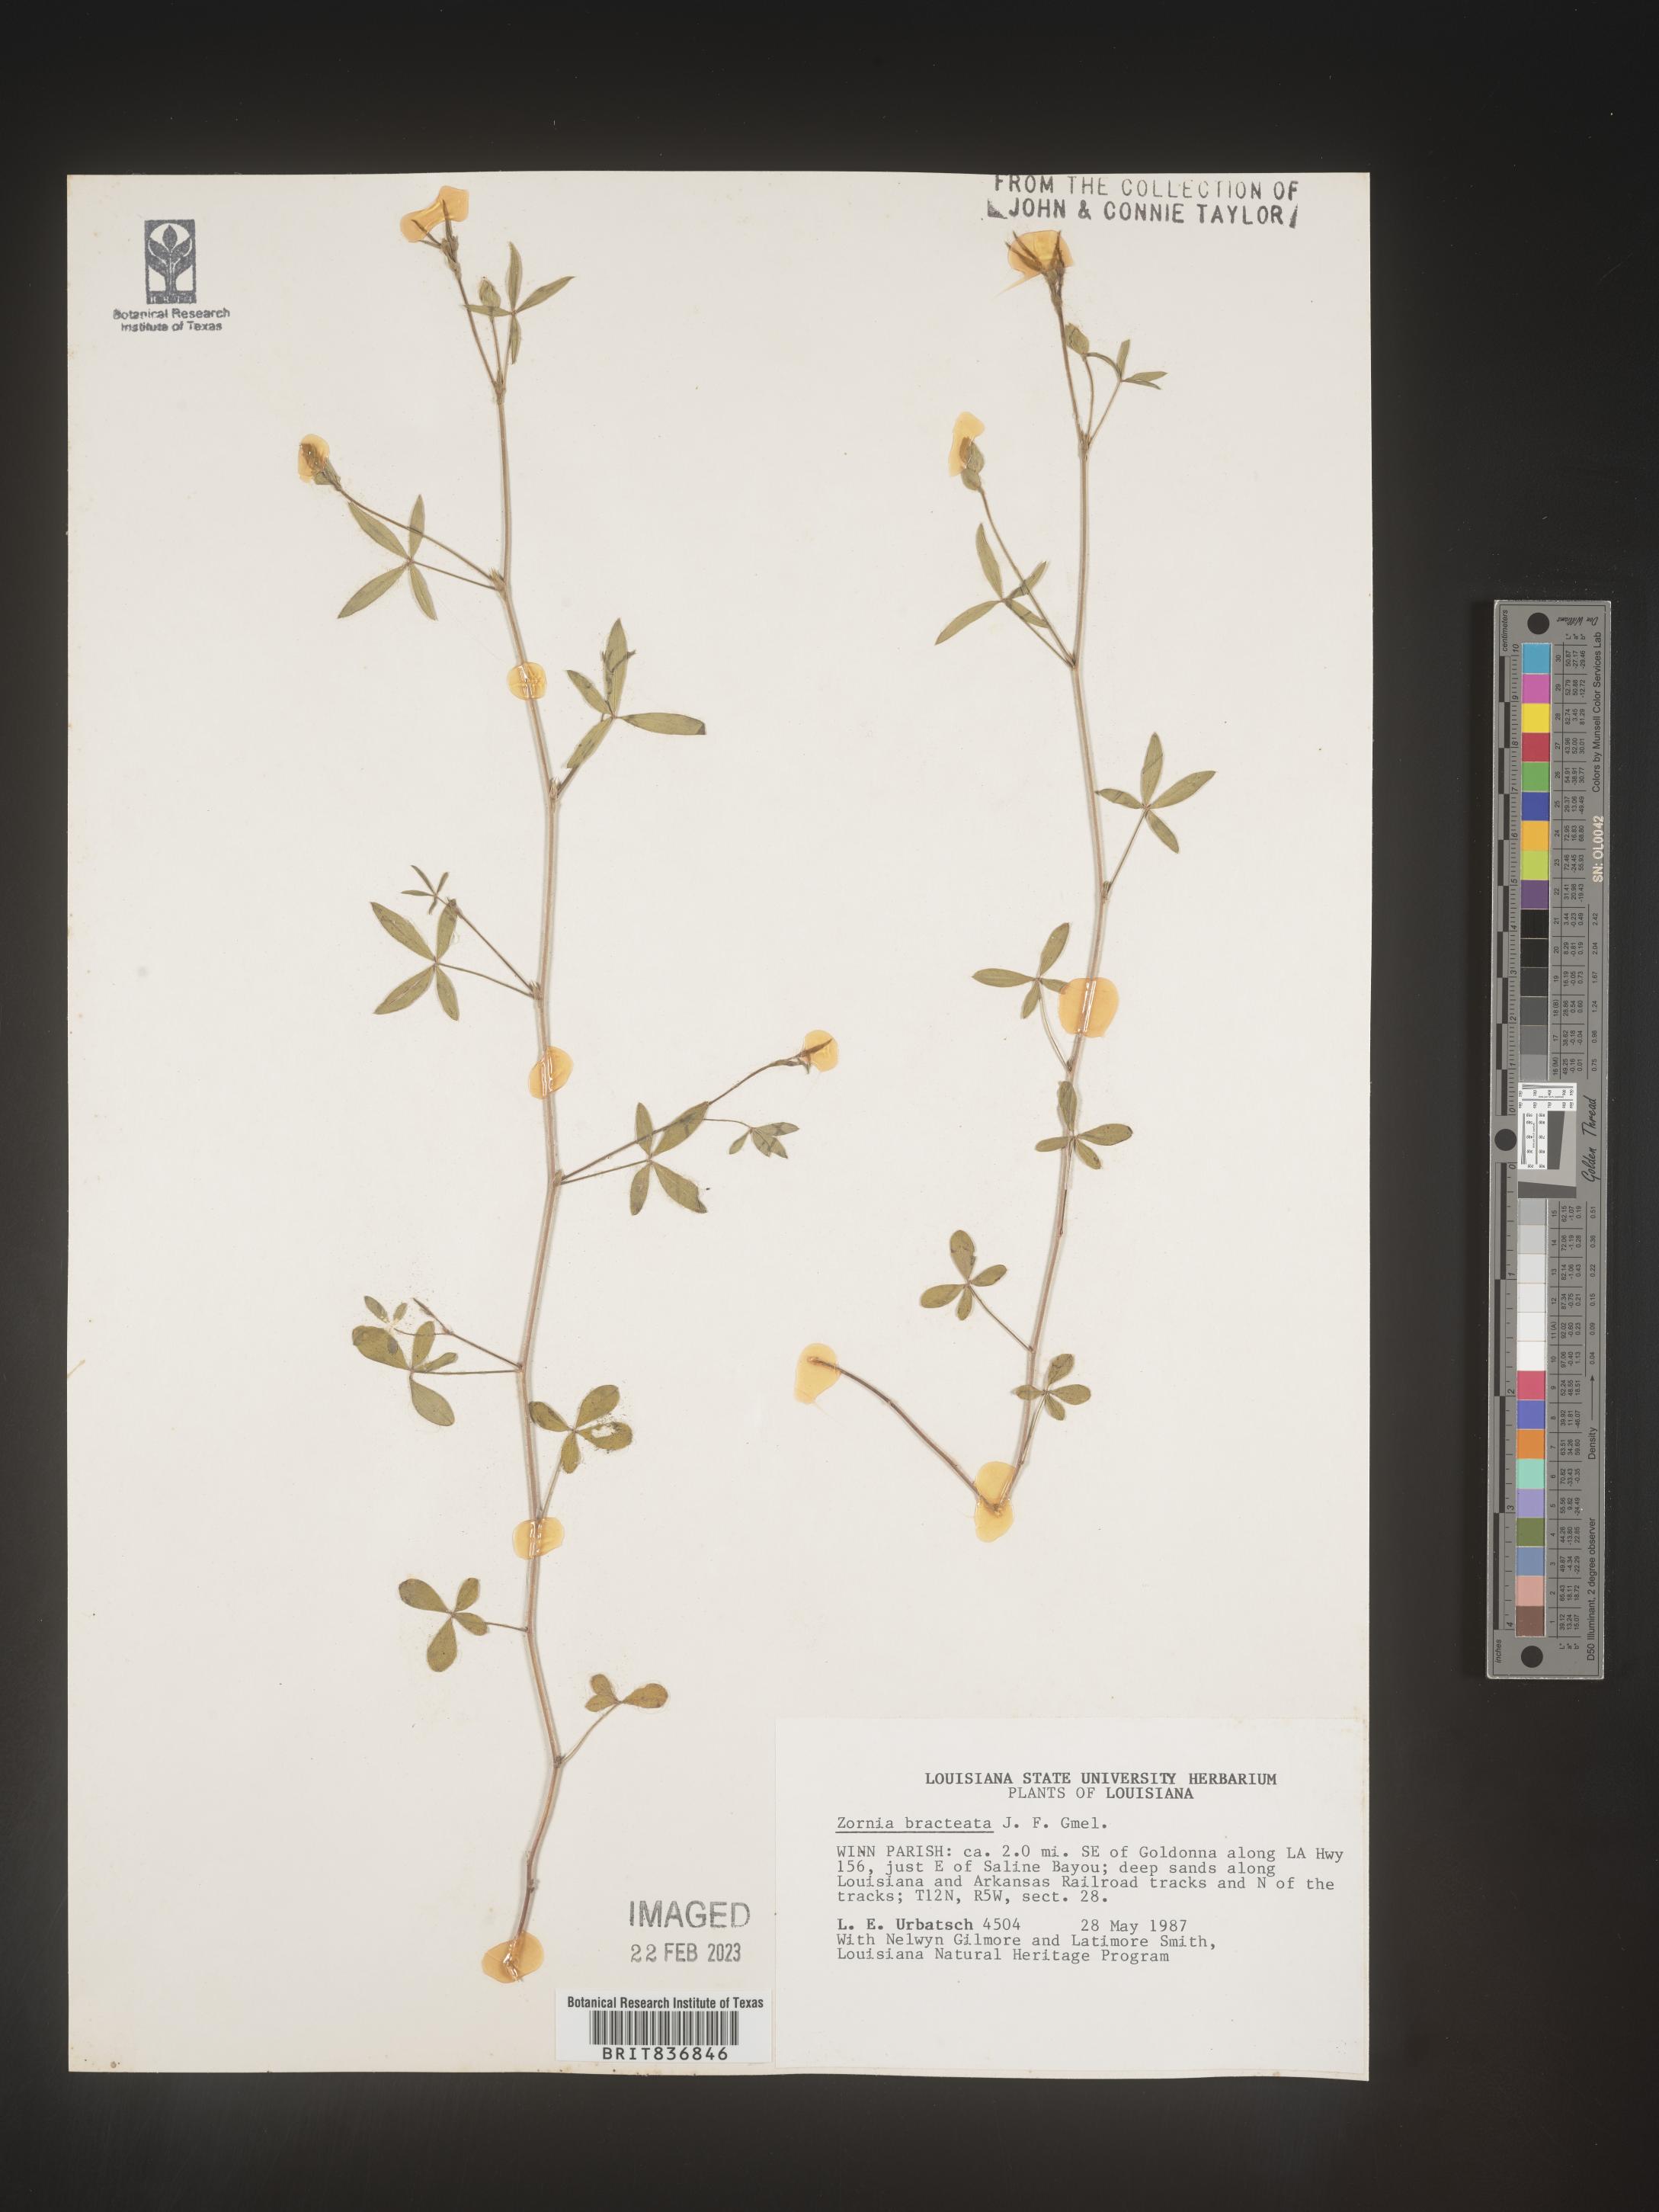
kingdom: Plantae
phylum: Tracheophyta
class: Magnoliopsida
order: Fabales
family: Fabaceae
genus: Zornia
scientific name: Zornia
